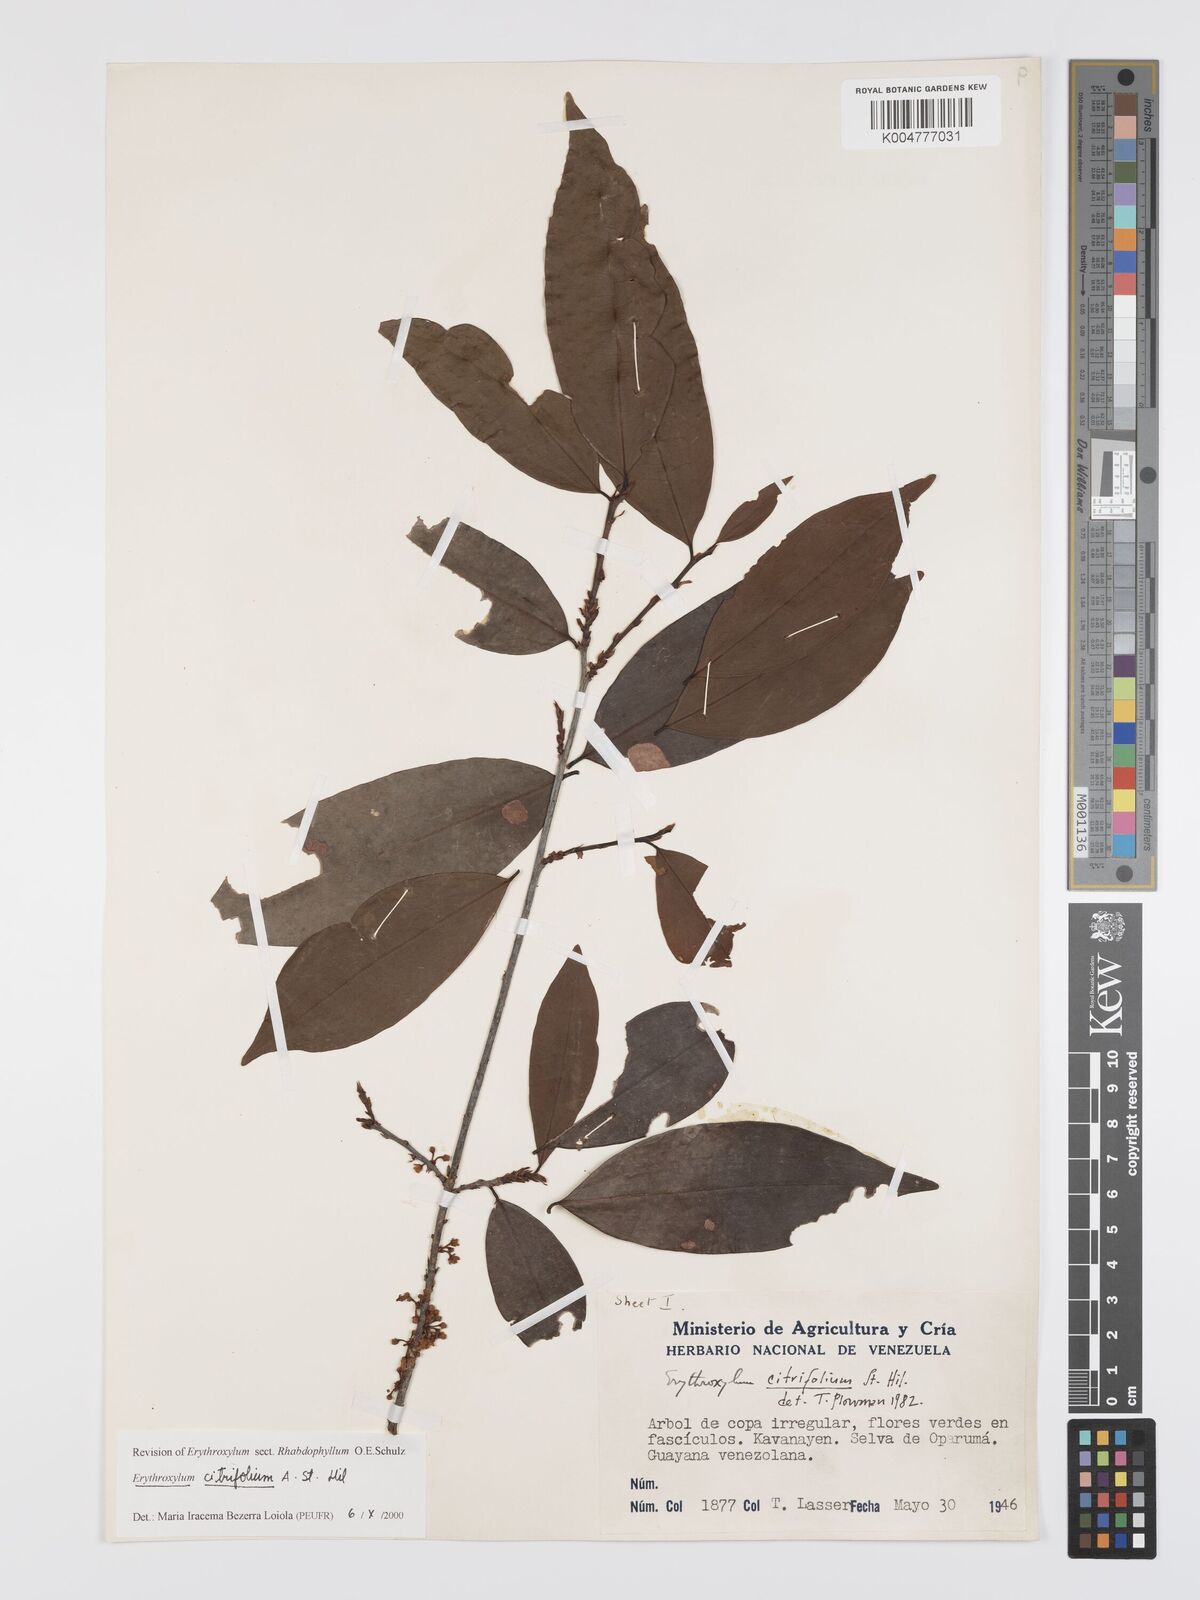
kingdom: Plantae
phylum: Tracheophyta
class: Magnoliopsida
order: Malpighiales
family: Erythroxylaceae
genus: Erythroxylum
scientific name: Erythroxylum citrifolium
